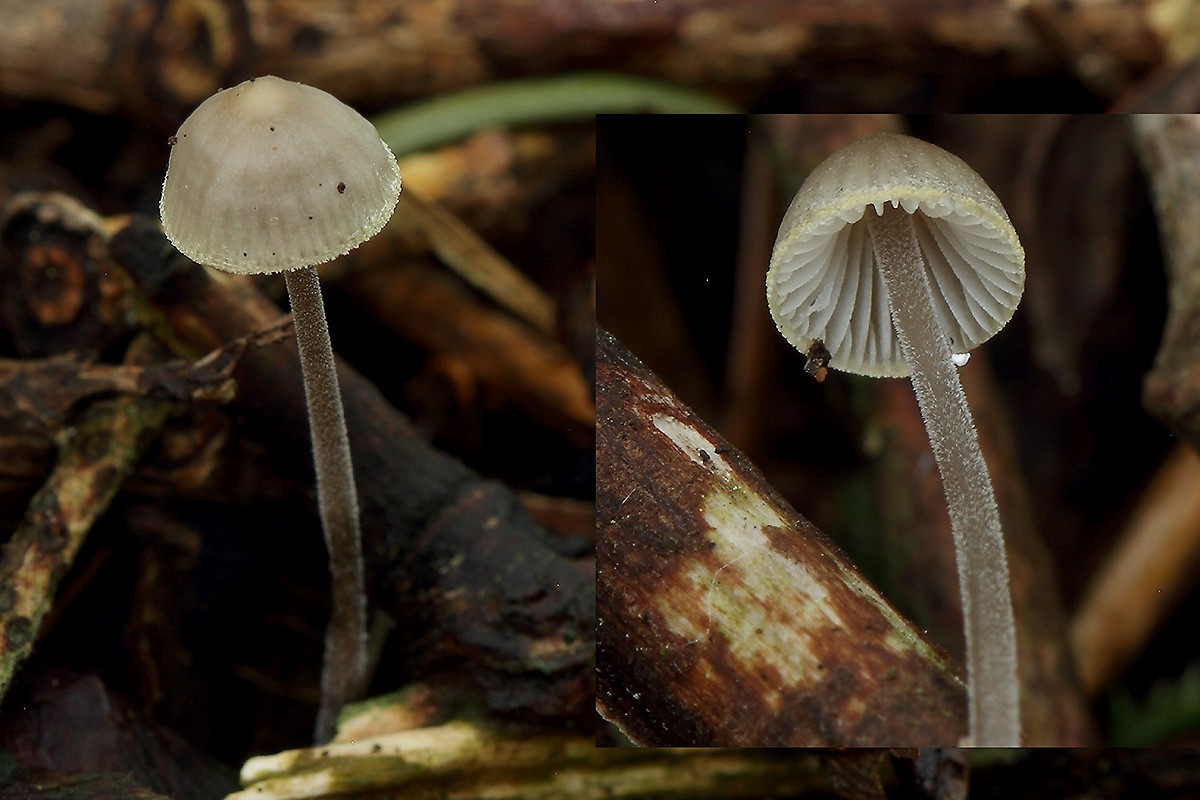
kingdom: Fungi
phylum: Basidiomycota
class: Agaricomycetes
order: Agaricales
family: Mycenaceae
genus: Mycena
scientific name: Mycena amicta
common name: iris-huesvamp
